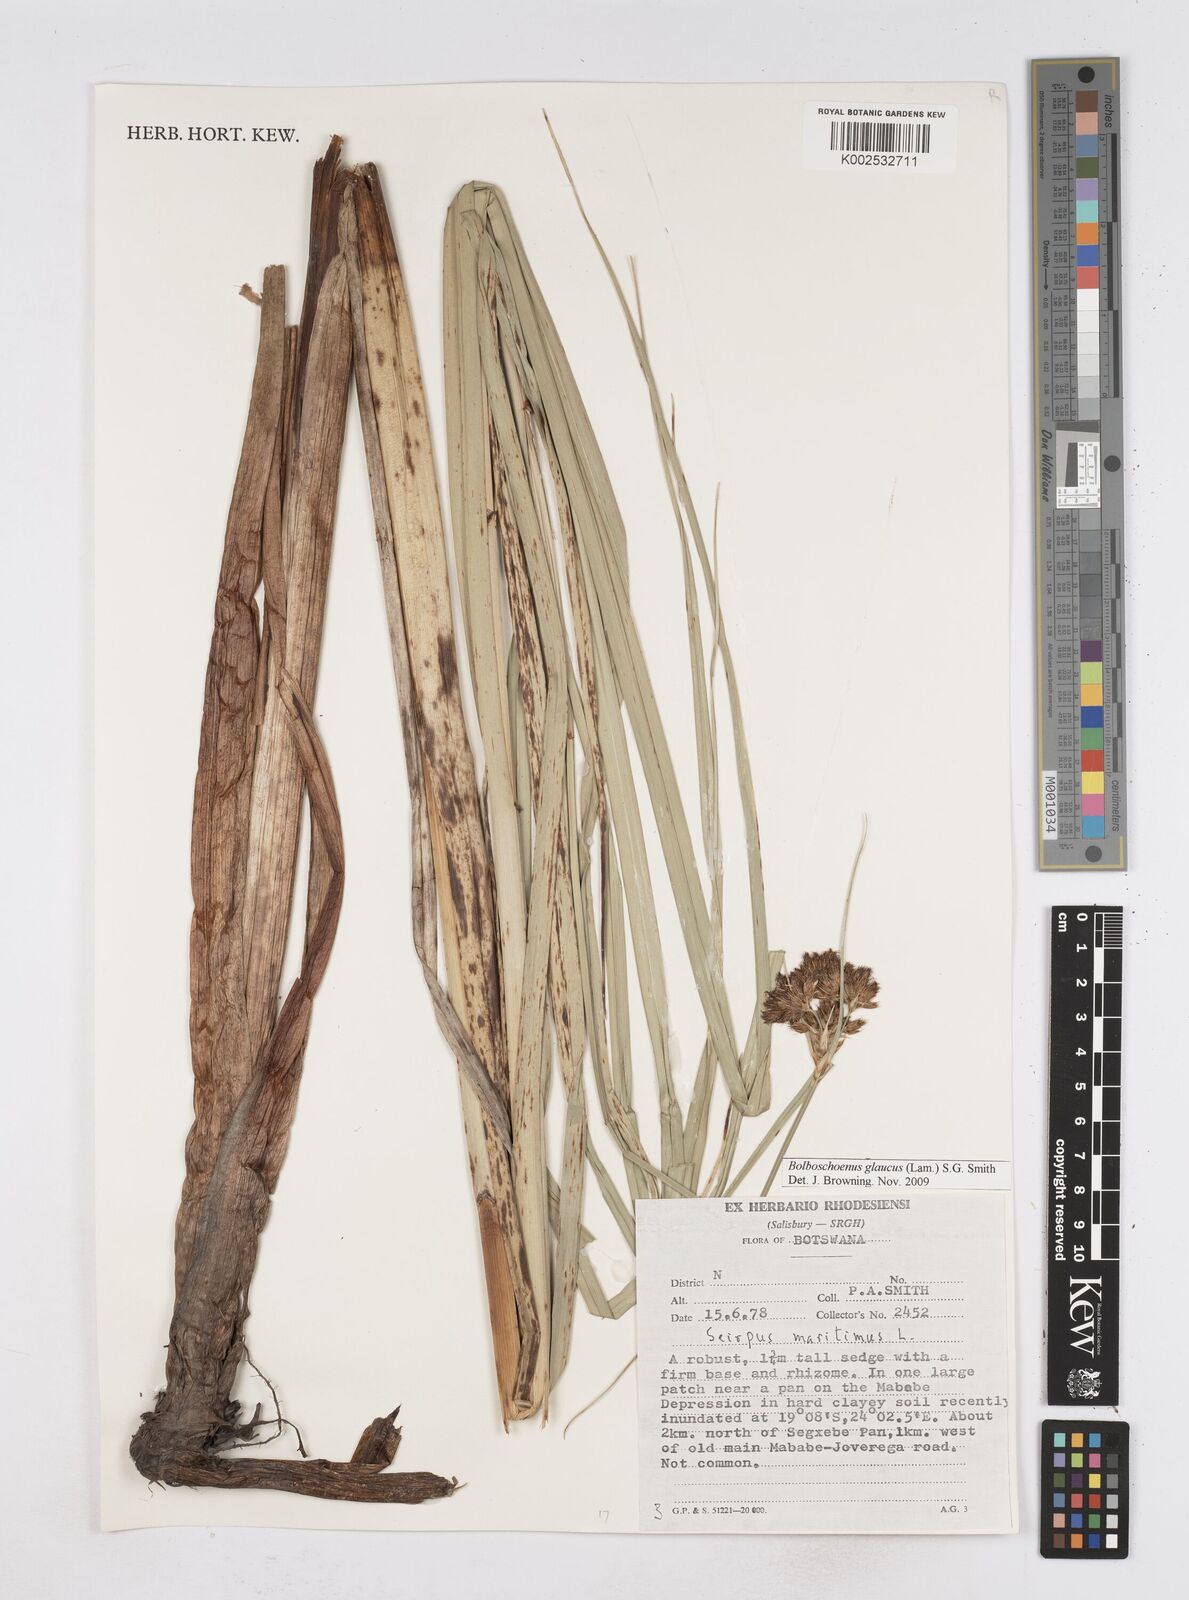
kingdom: Plantae
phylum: Tracheophyta
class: Liliopsida
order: Poales
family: Cyperaceae
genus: Bolboschoenus
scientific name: Bolboschoenus glaucus
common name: Tuberous bulrush
